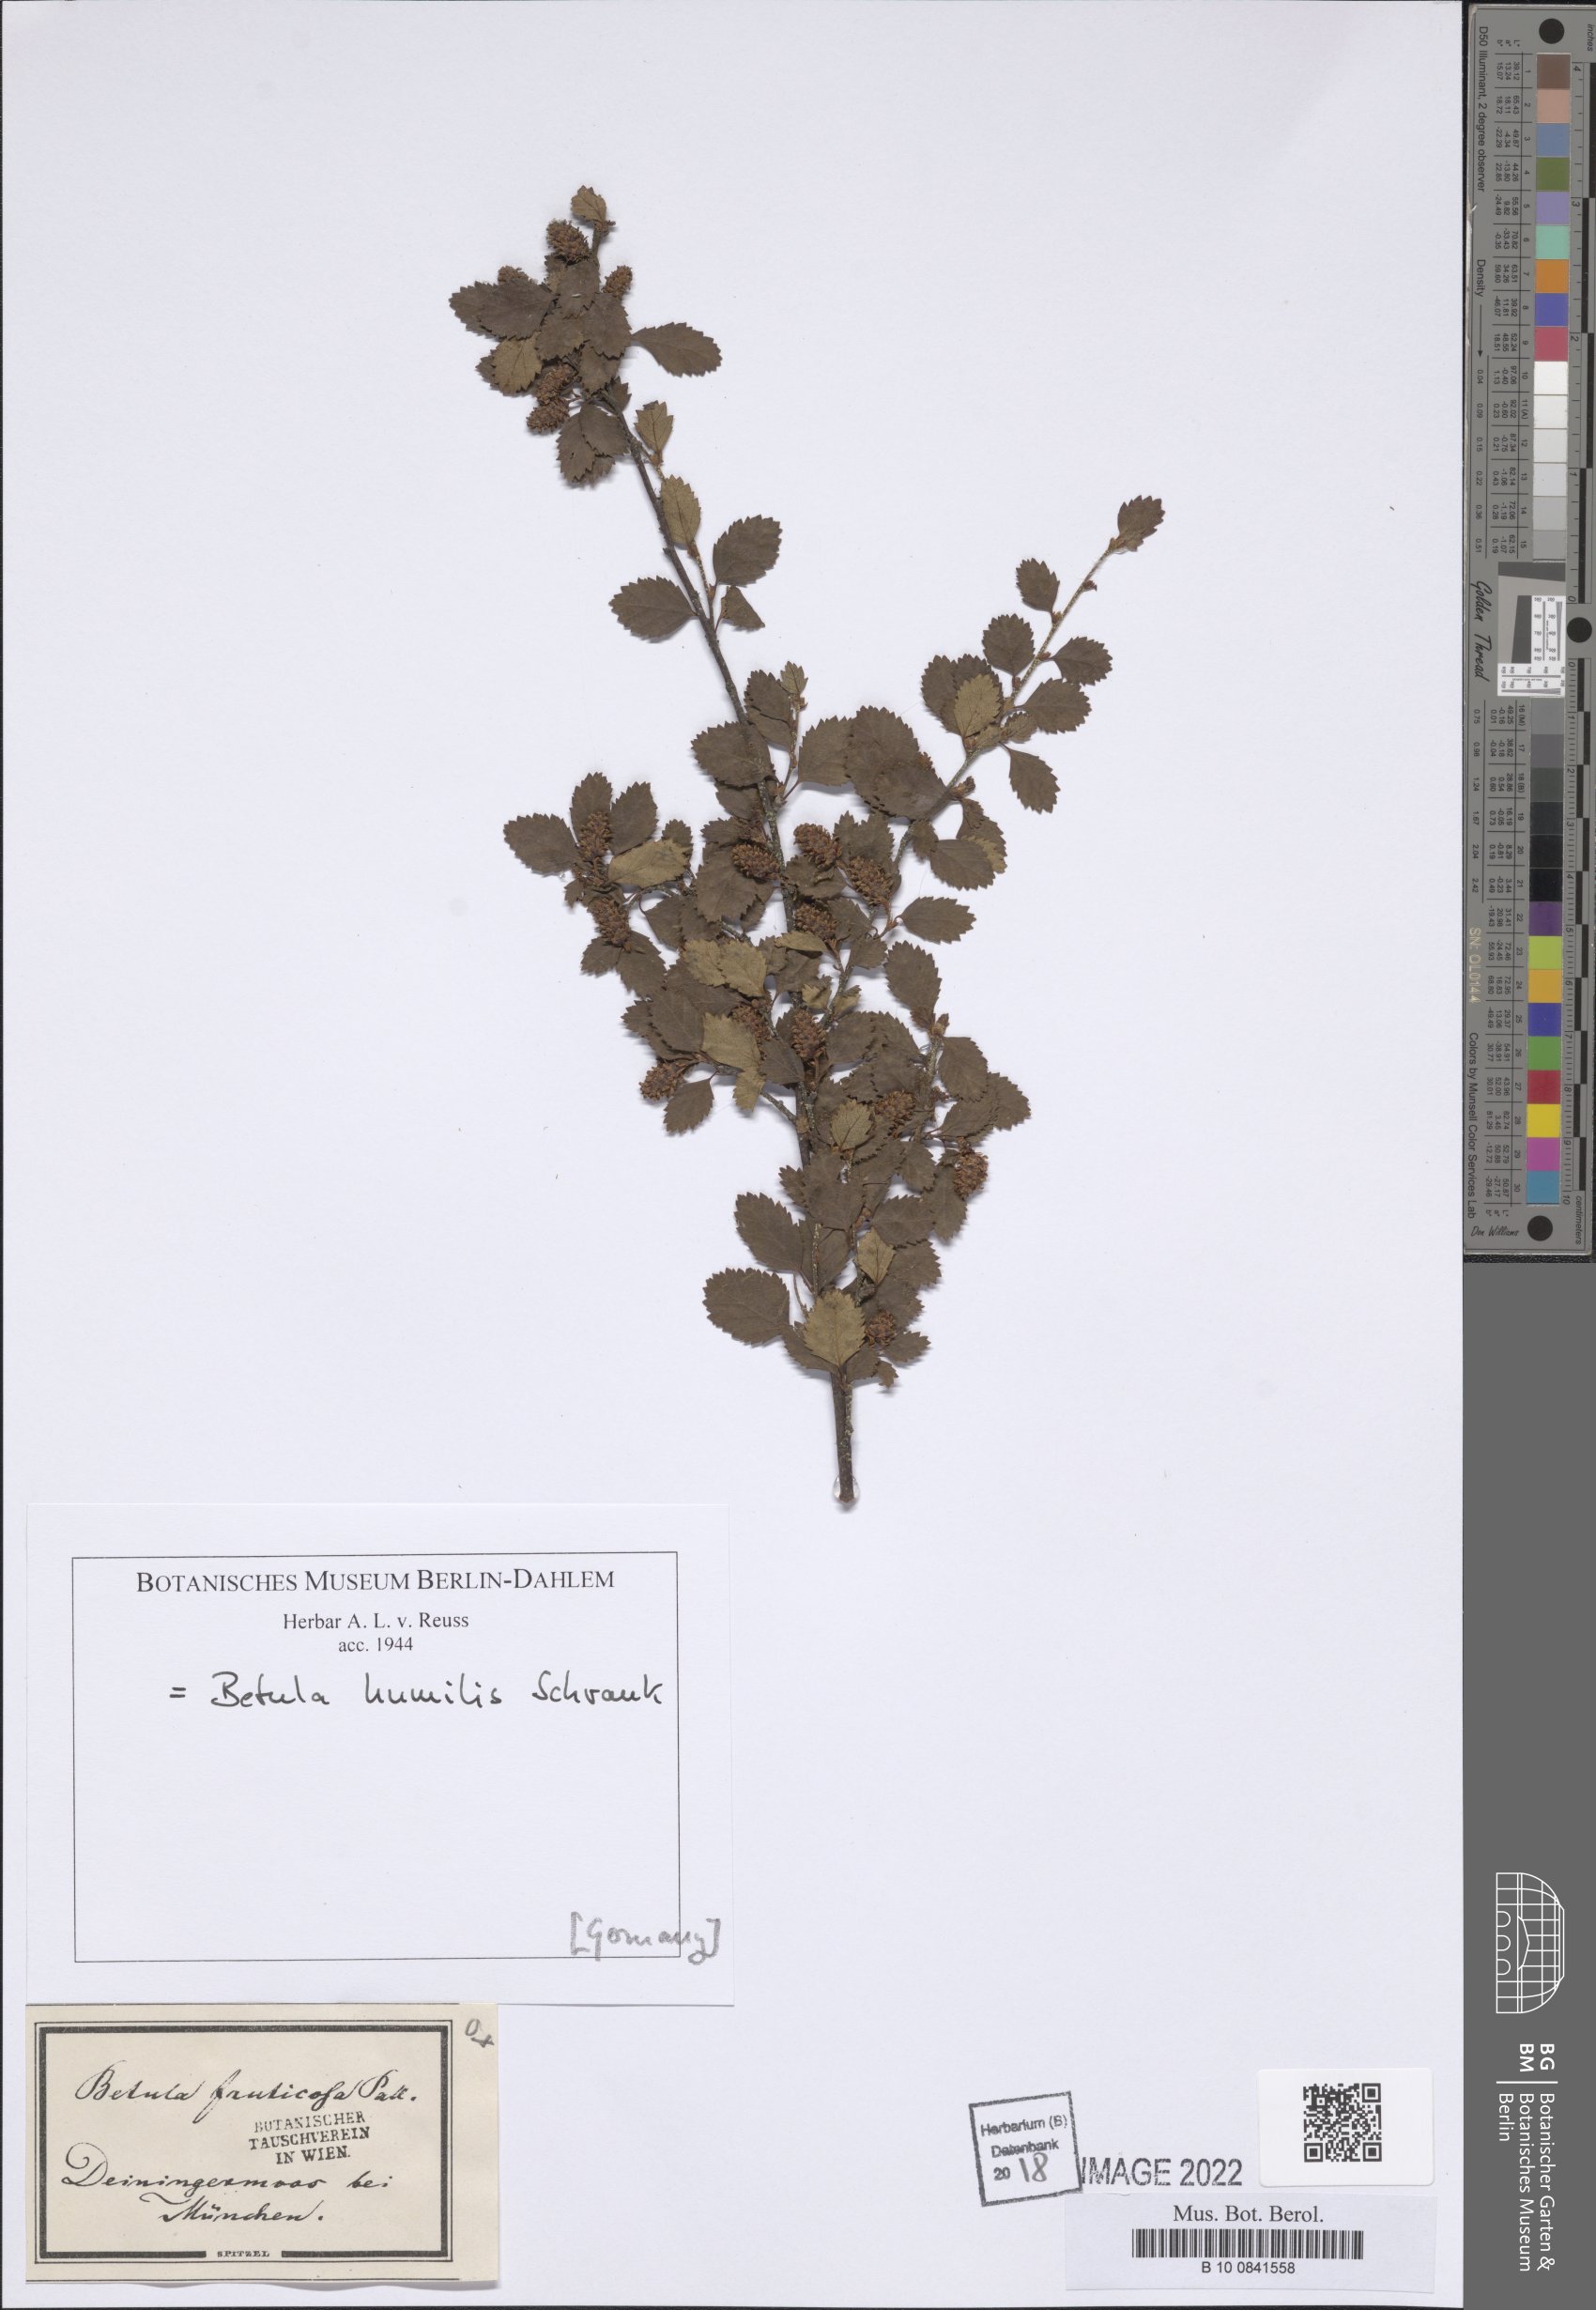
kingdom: Plantae
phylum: Tracheophyta
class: Magnoliopsida
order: Fagales
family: Betulaceae
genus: Betula
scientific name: Betula humilis
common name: Shrubby birch
